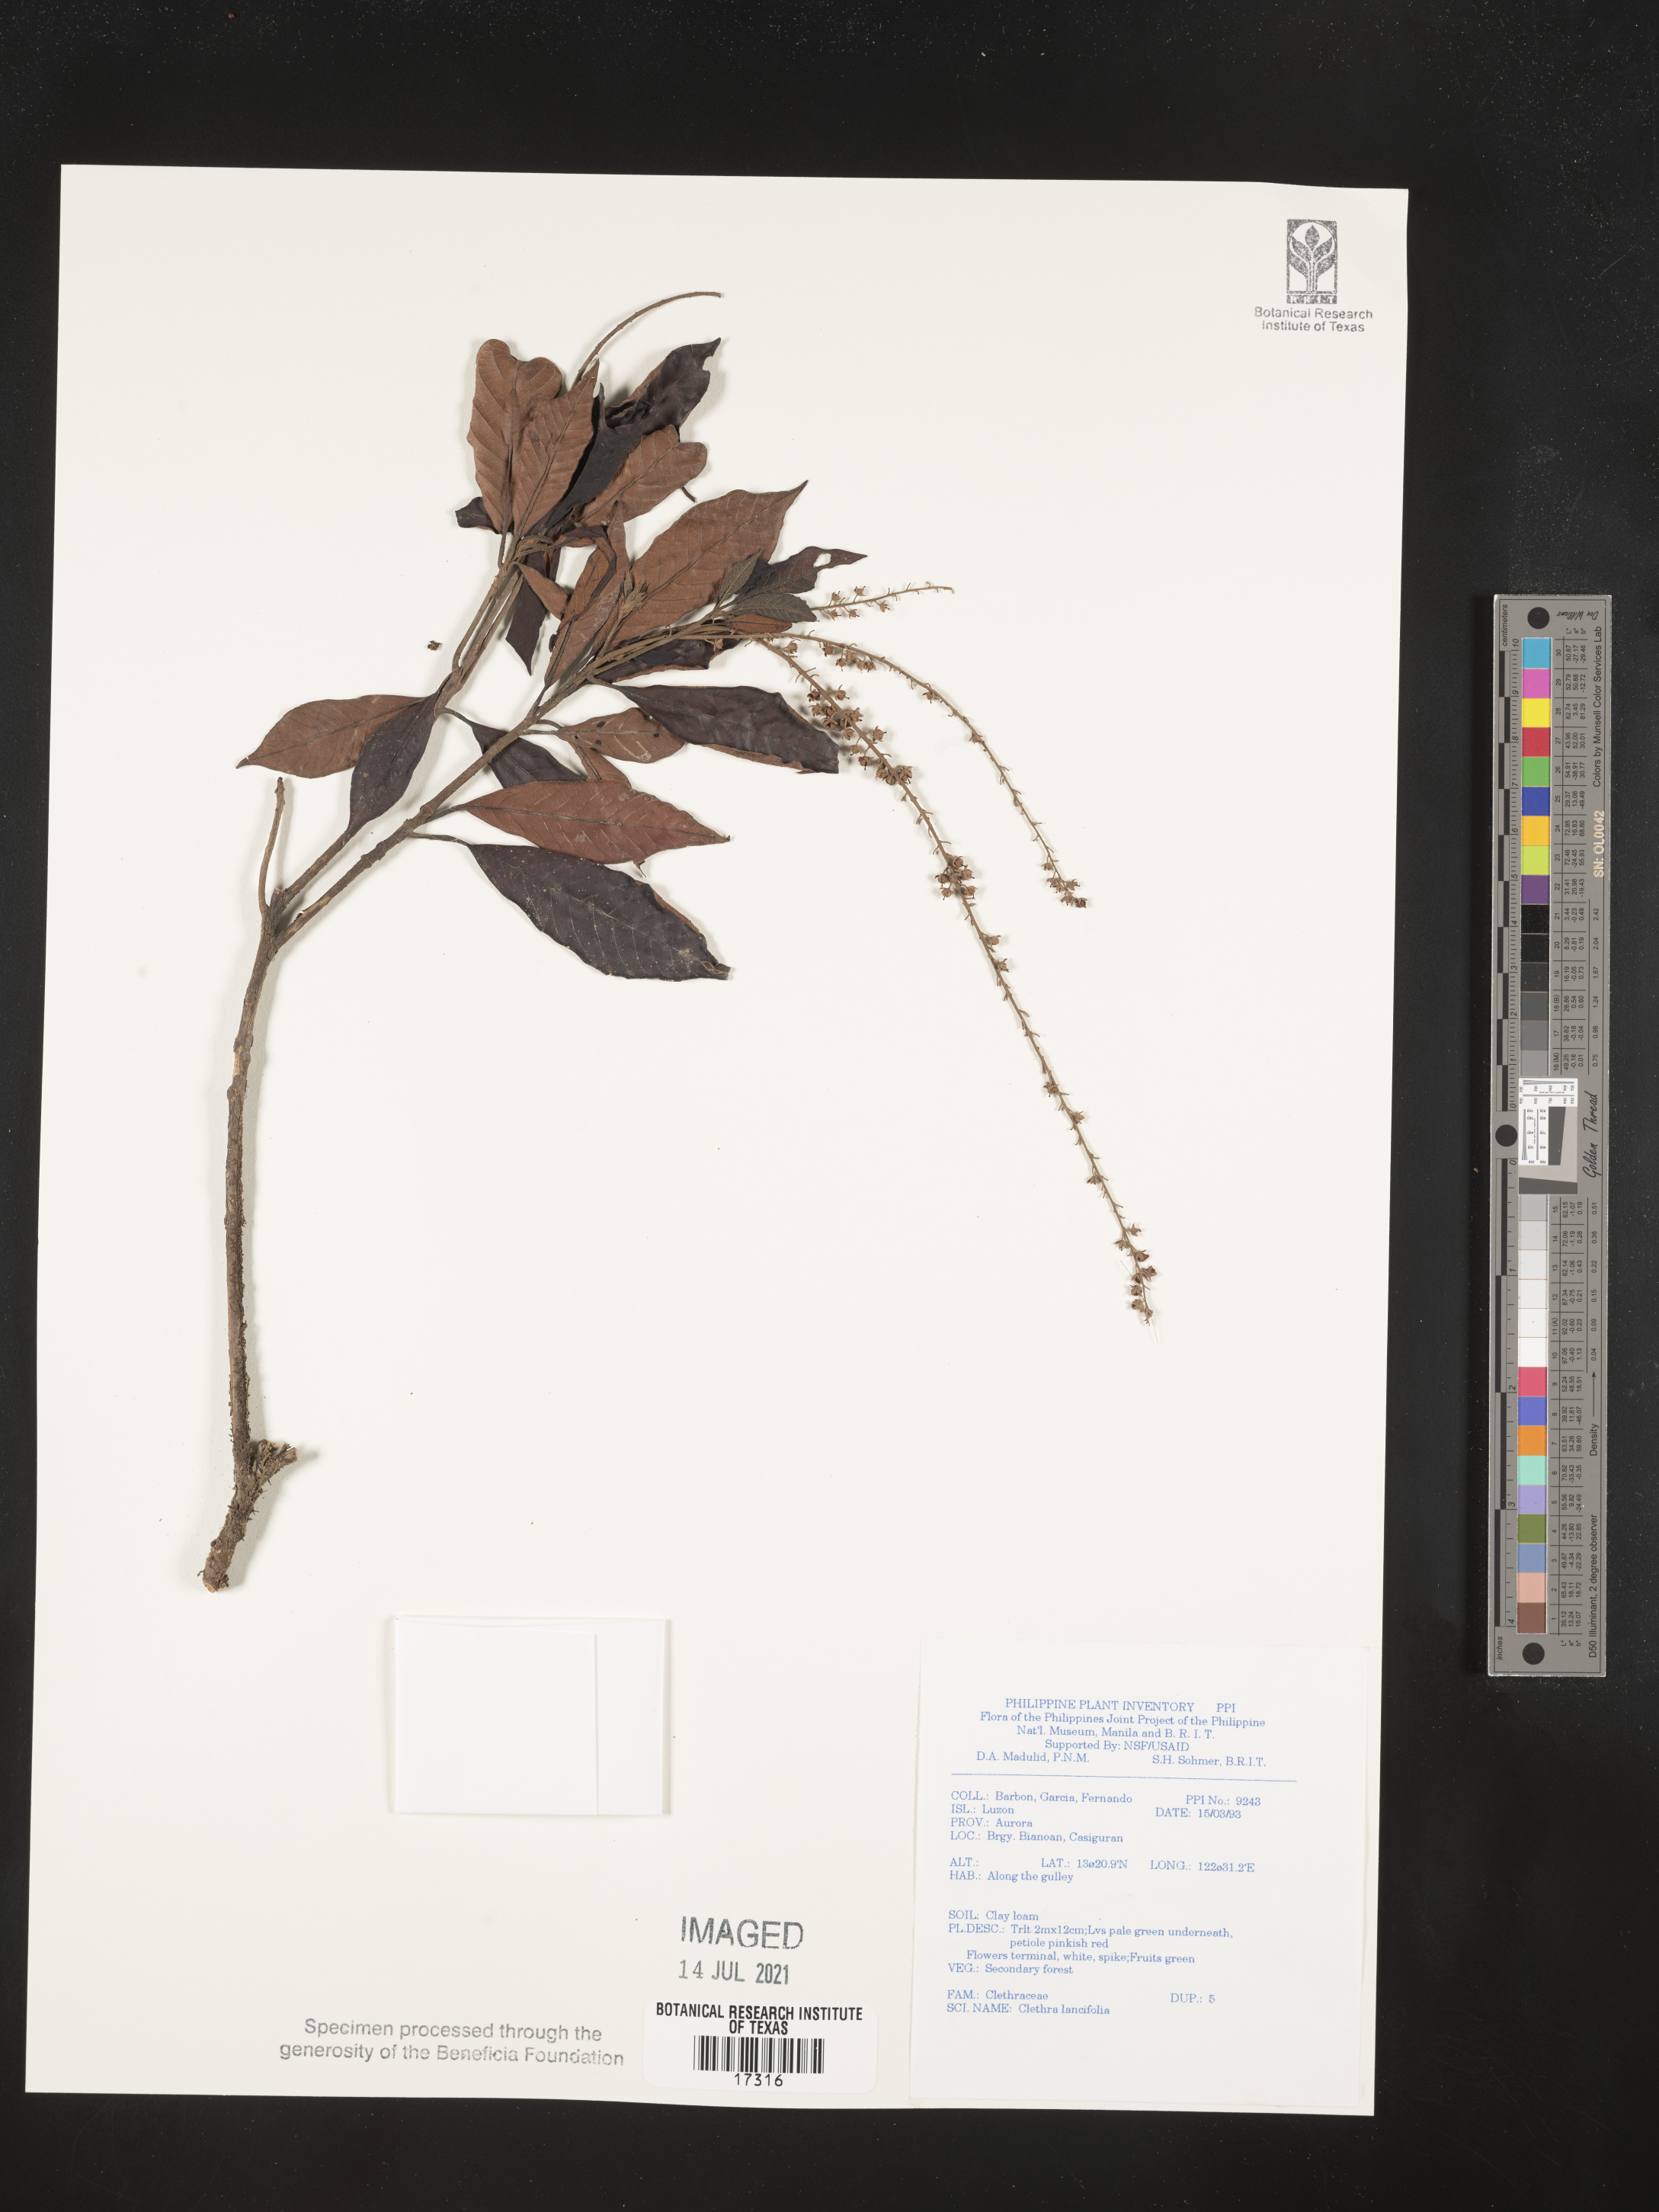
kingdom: Plantae
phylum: Tracheophyta
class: Magnoliopsida
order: Ericales
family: Clethraceae
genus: Clethra
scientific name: Clethra canescens
